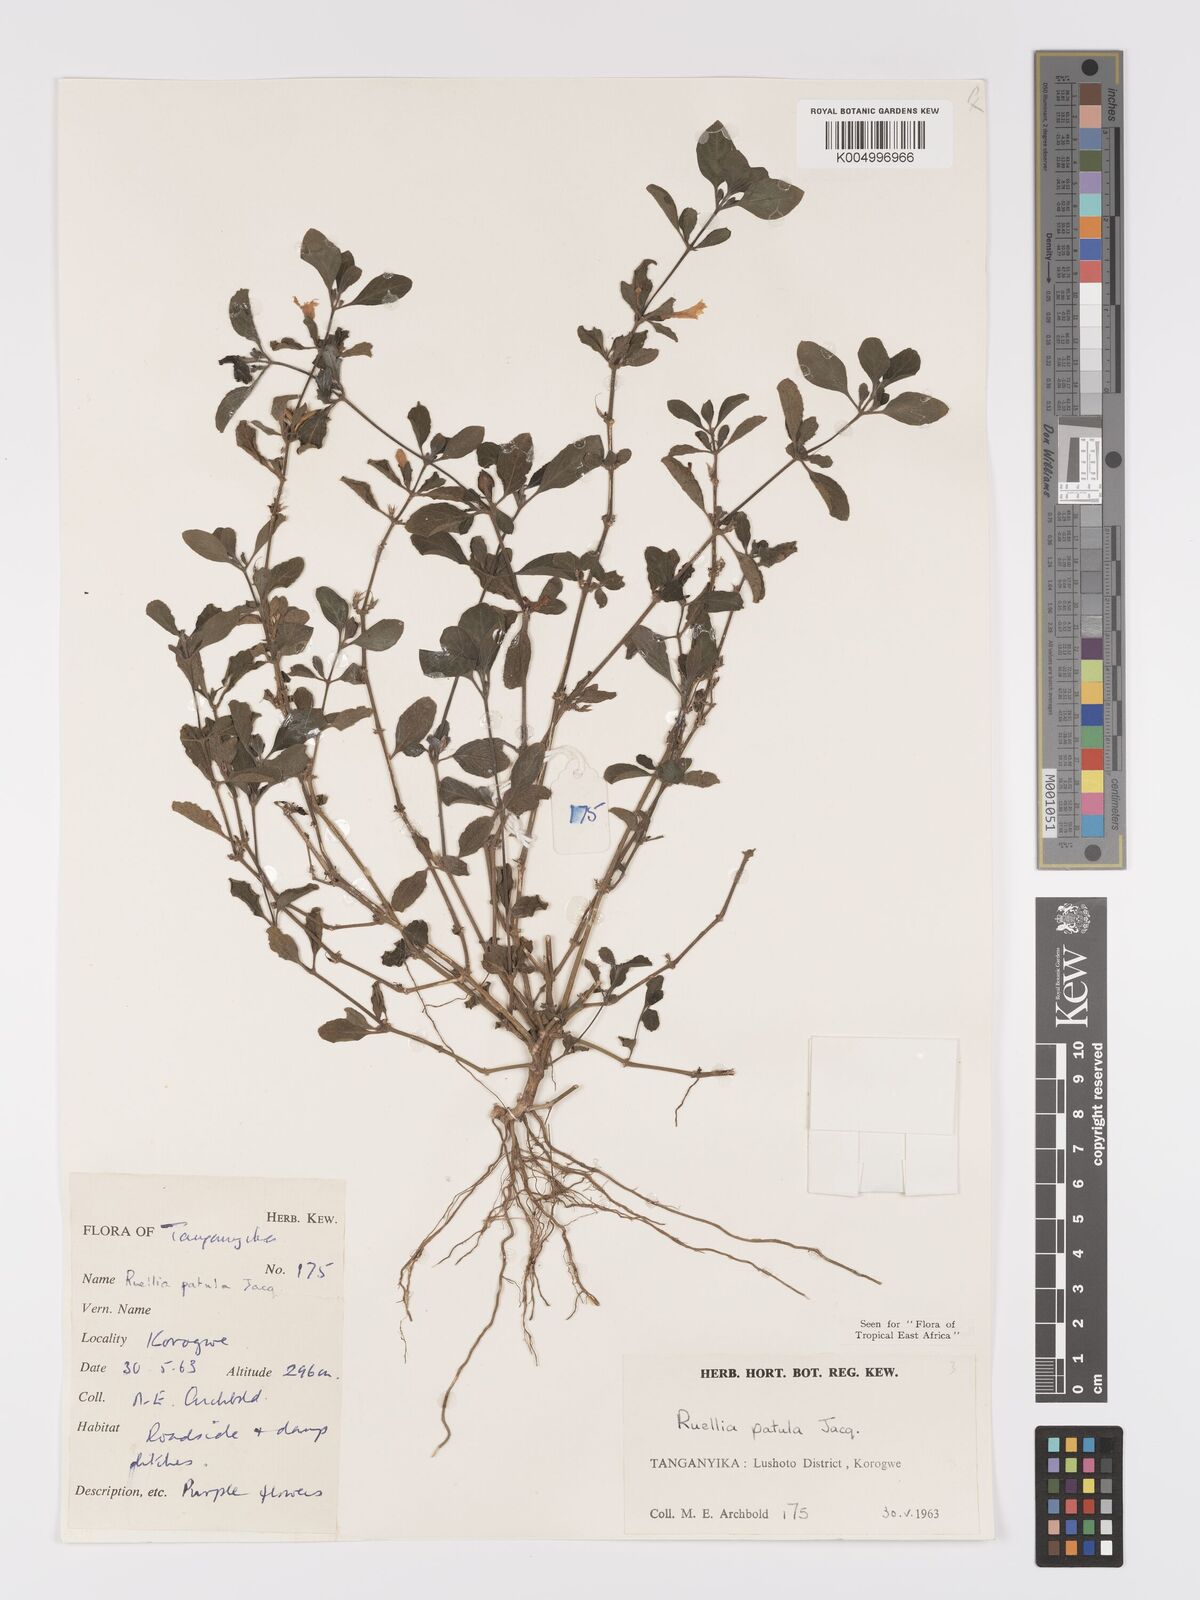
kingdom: Plantae
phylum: Tracheophyta
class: Magnoliopsida
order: Lamiales
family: Acanthaceae
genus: Ruellia
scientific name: Ruellia patula
